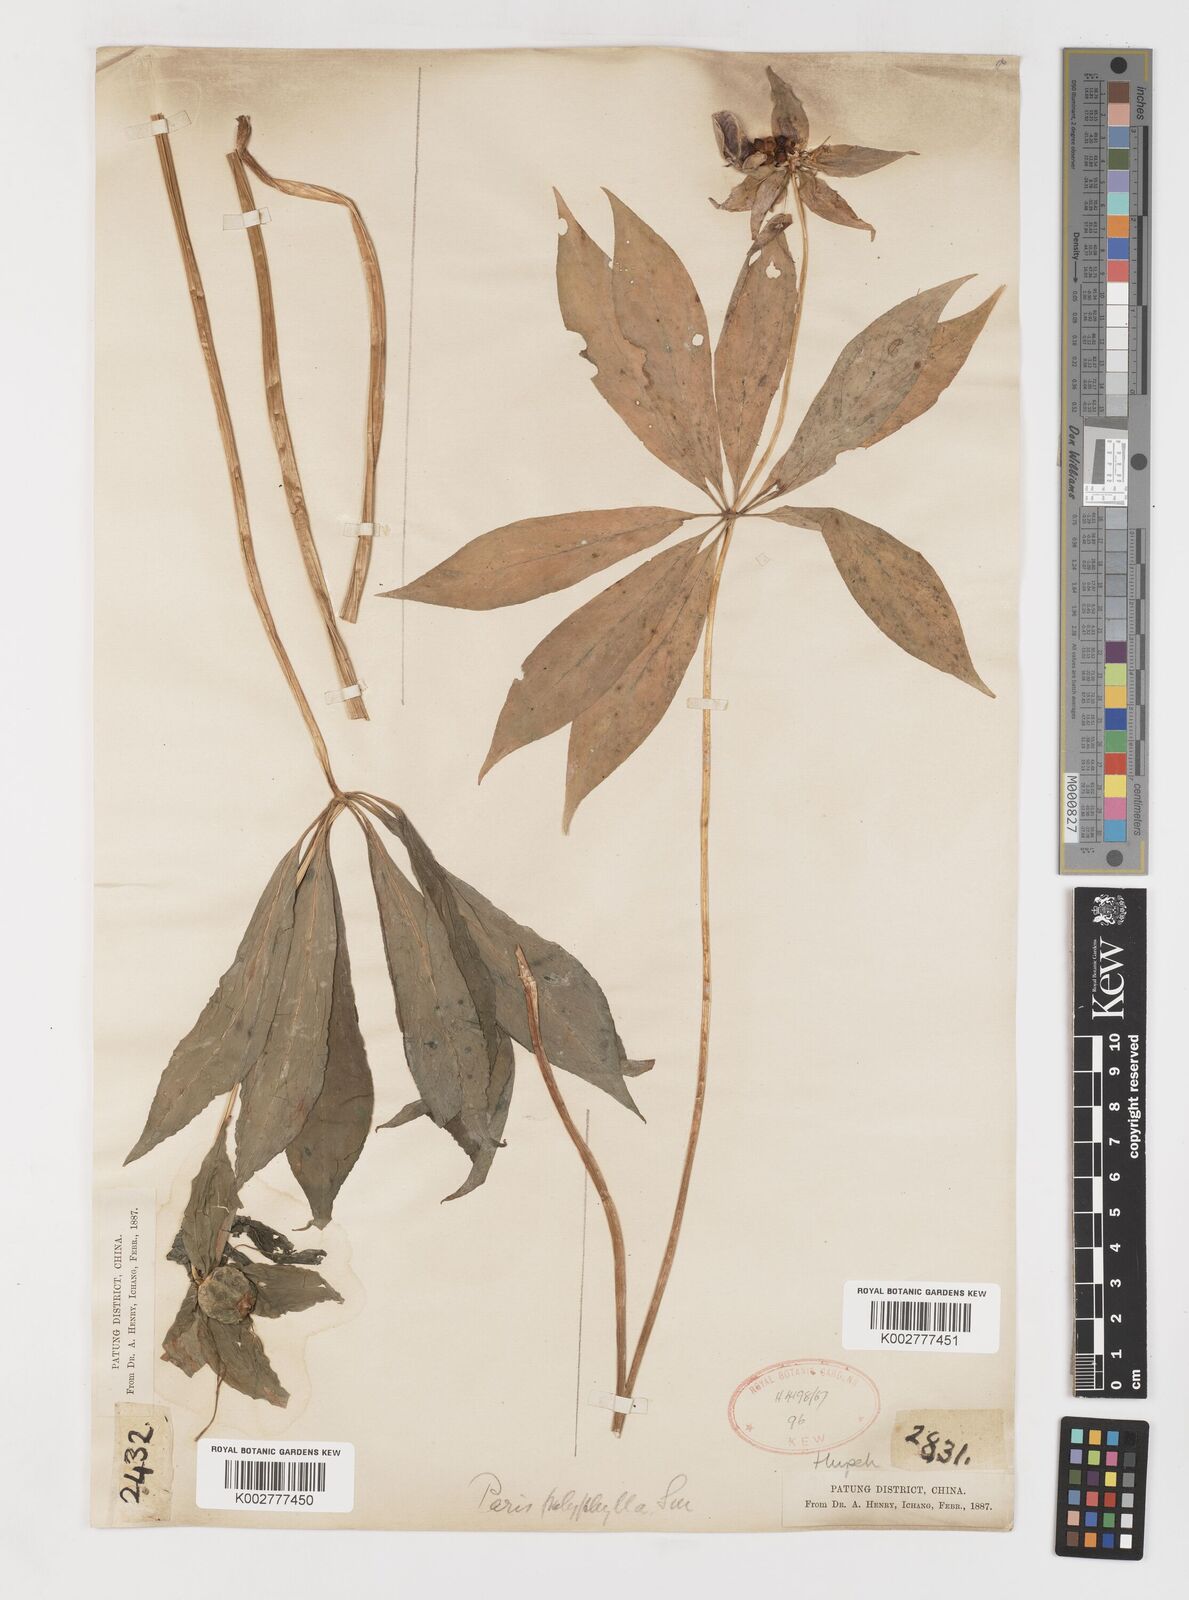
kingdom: Plantae
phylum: Tracheophyta
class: Liliopsida
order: Liliales
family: Melanthiaceae
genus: Paris
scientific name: Paris polyphylla
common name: Love apple
